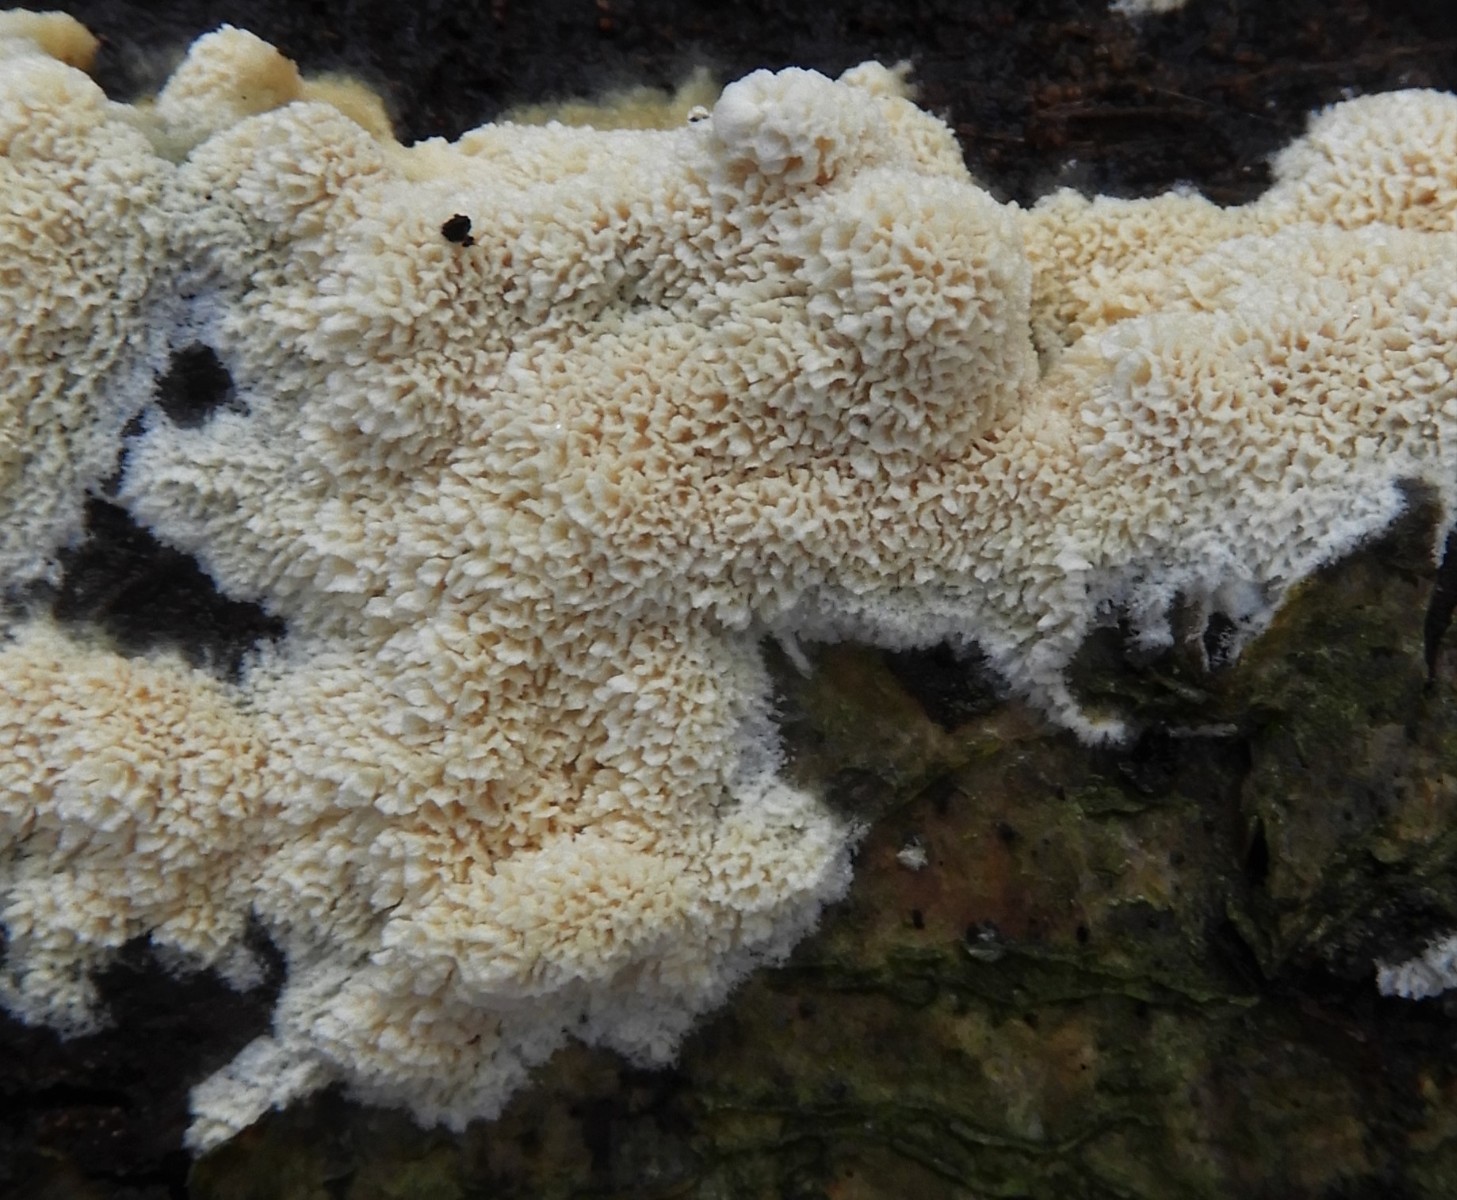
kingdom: Fungi
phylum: Basidiomycota
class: Agaricomycetes
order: Hymenochaetales
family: Schizoporaceae
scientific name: Schizoporaceae
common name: tandsvampfamilien
